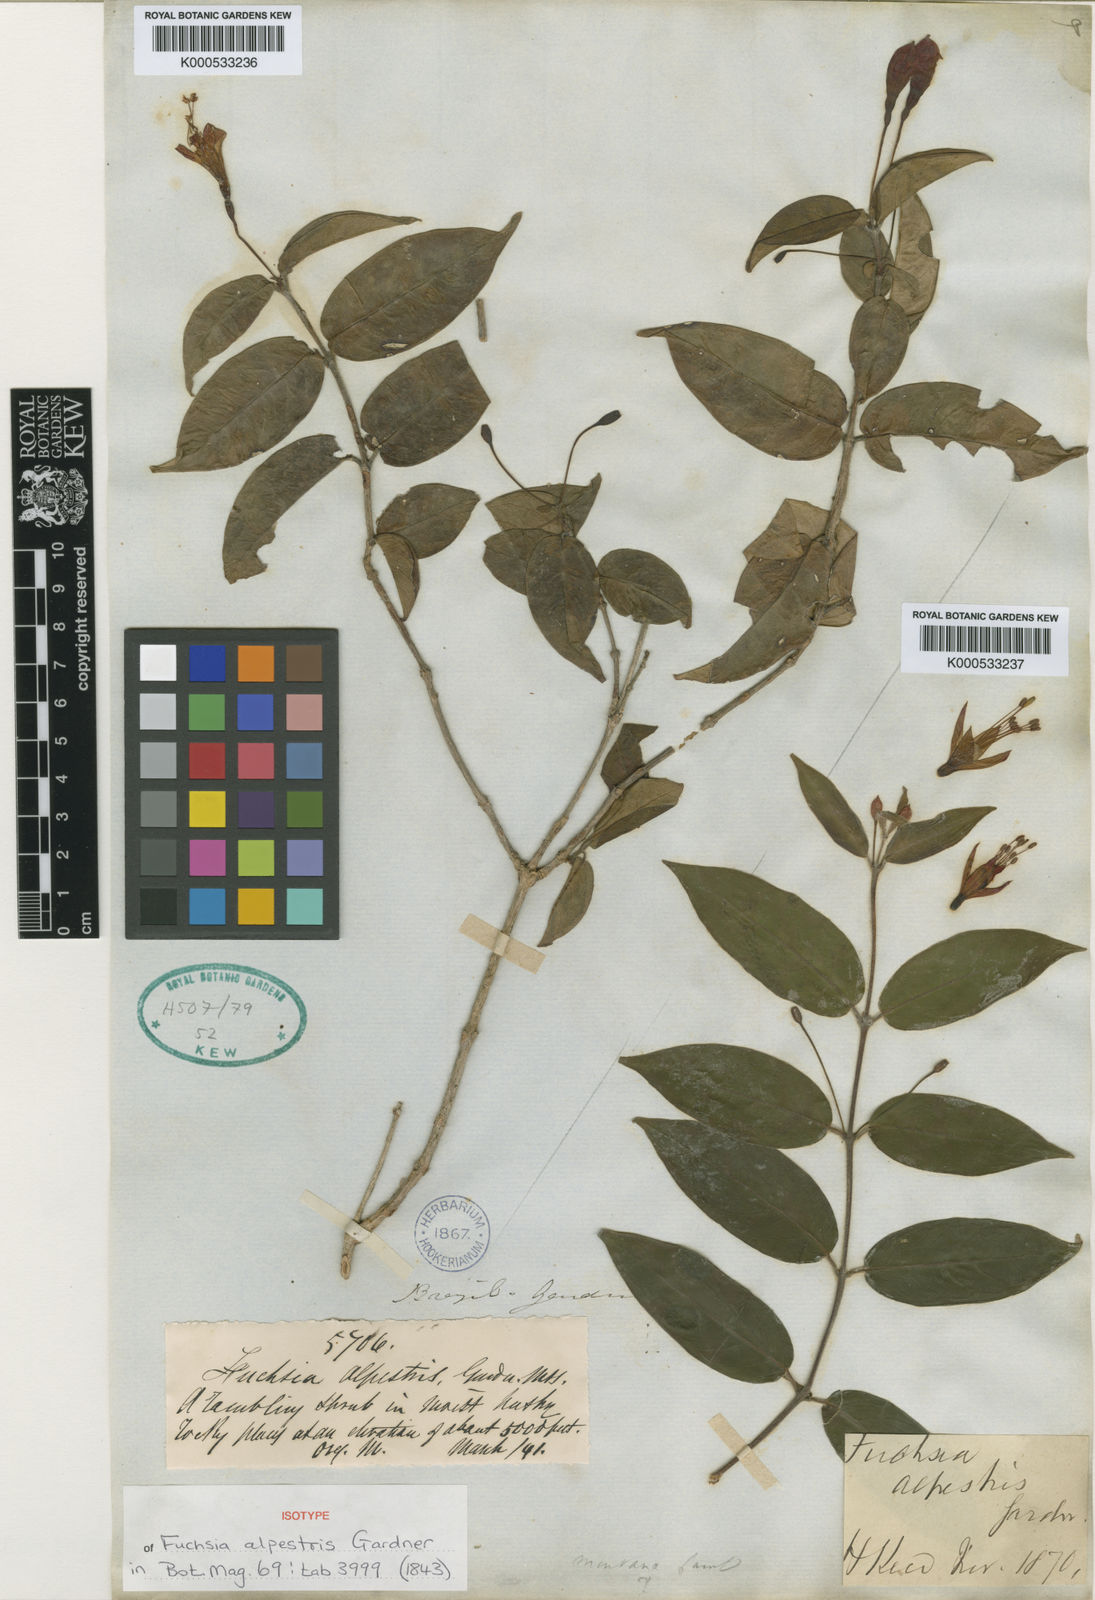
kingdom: Plantae
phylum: Tracheophyta
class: Magnoliopsida
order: Myrtales
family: Onagraceae
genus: Fuchsia
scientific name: Fuchsia alpestris
